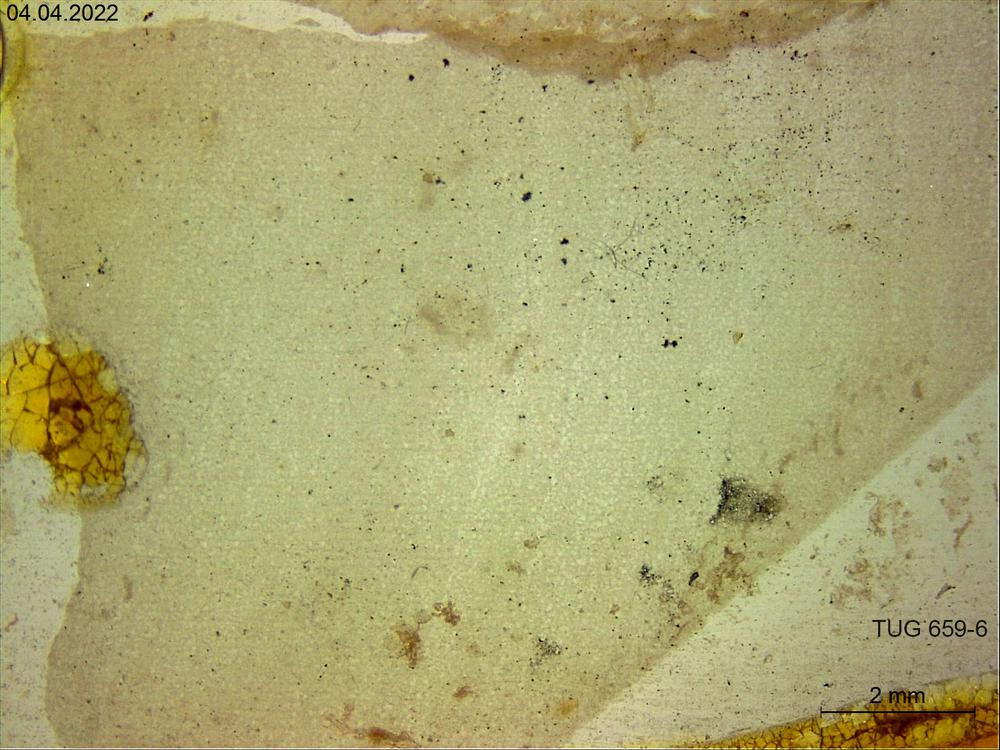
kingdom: Animalia
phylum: Porifera
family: Clathrodictyidae
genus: Clathrodictyon
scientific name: Clathrodictyon vesiculosum
